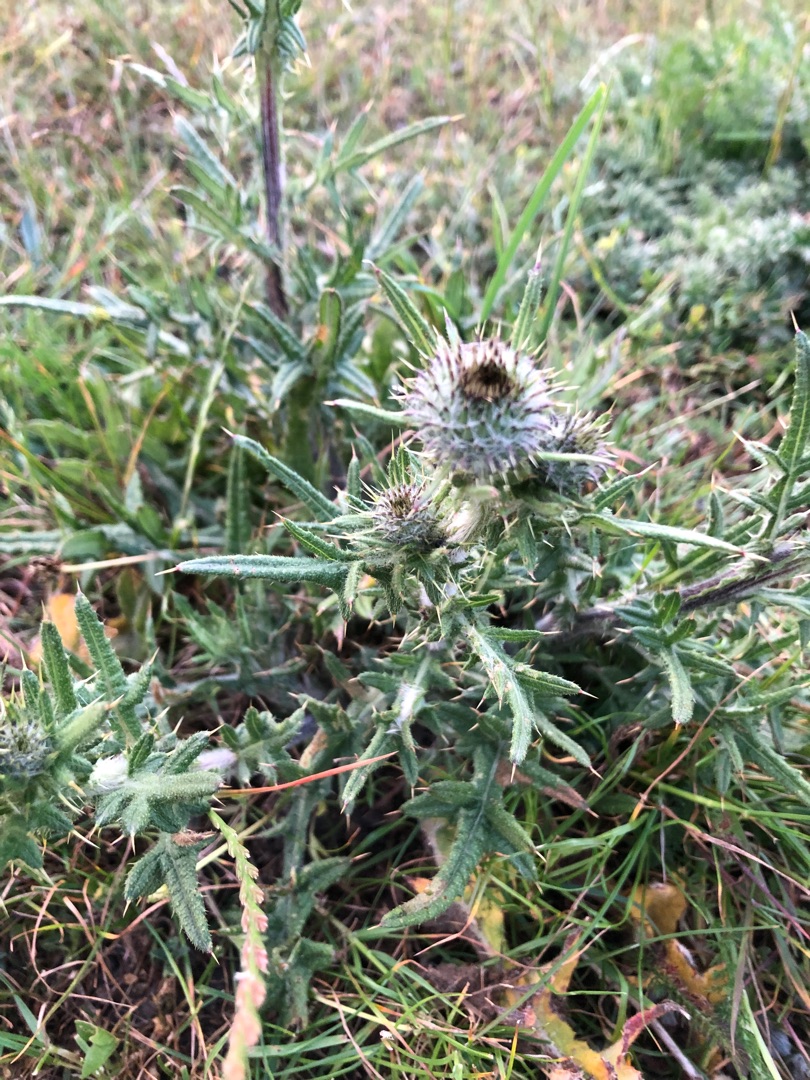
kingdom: Plantae
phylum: Tracheophyta
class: Magnoliopsida
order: Asterales
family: Asteraceae
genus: Cirsium
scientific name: Cirsium vulgare
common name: Horse-tidsel
